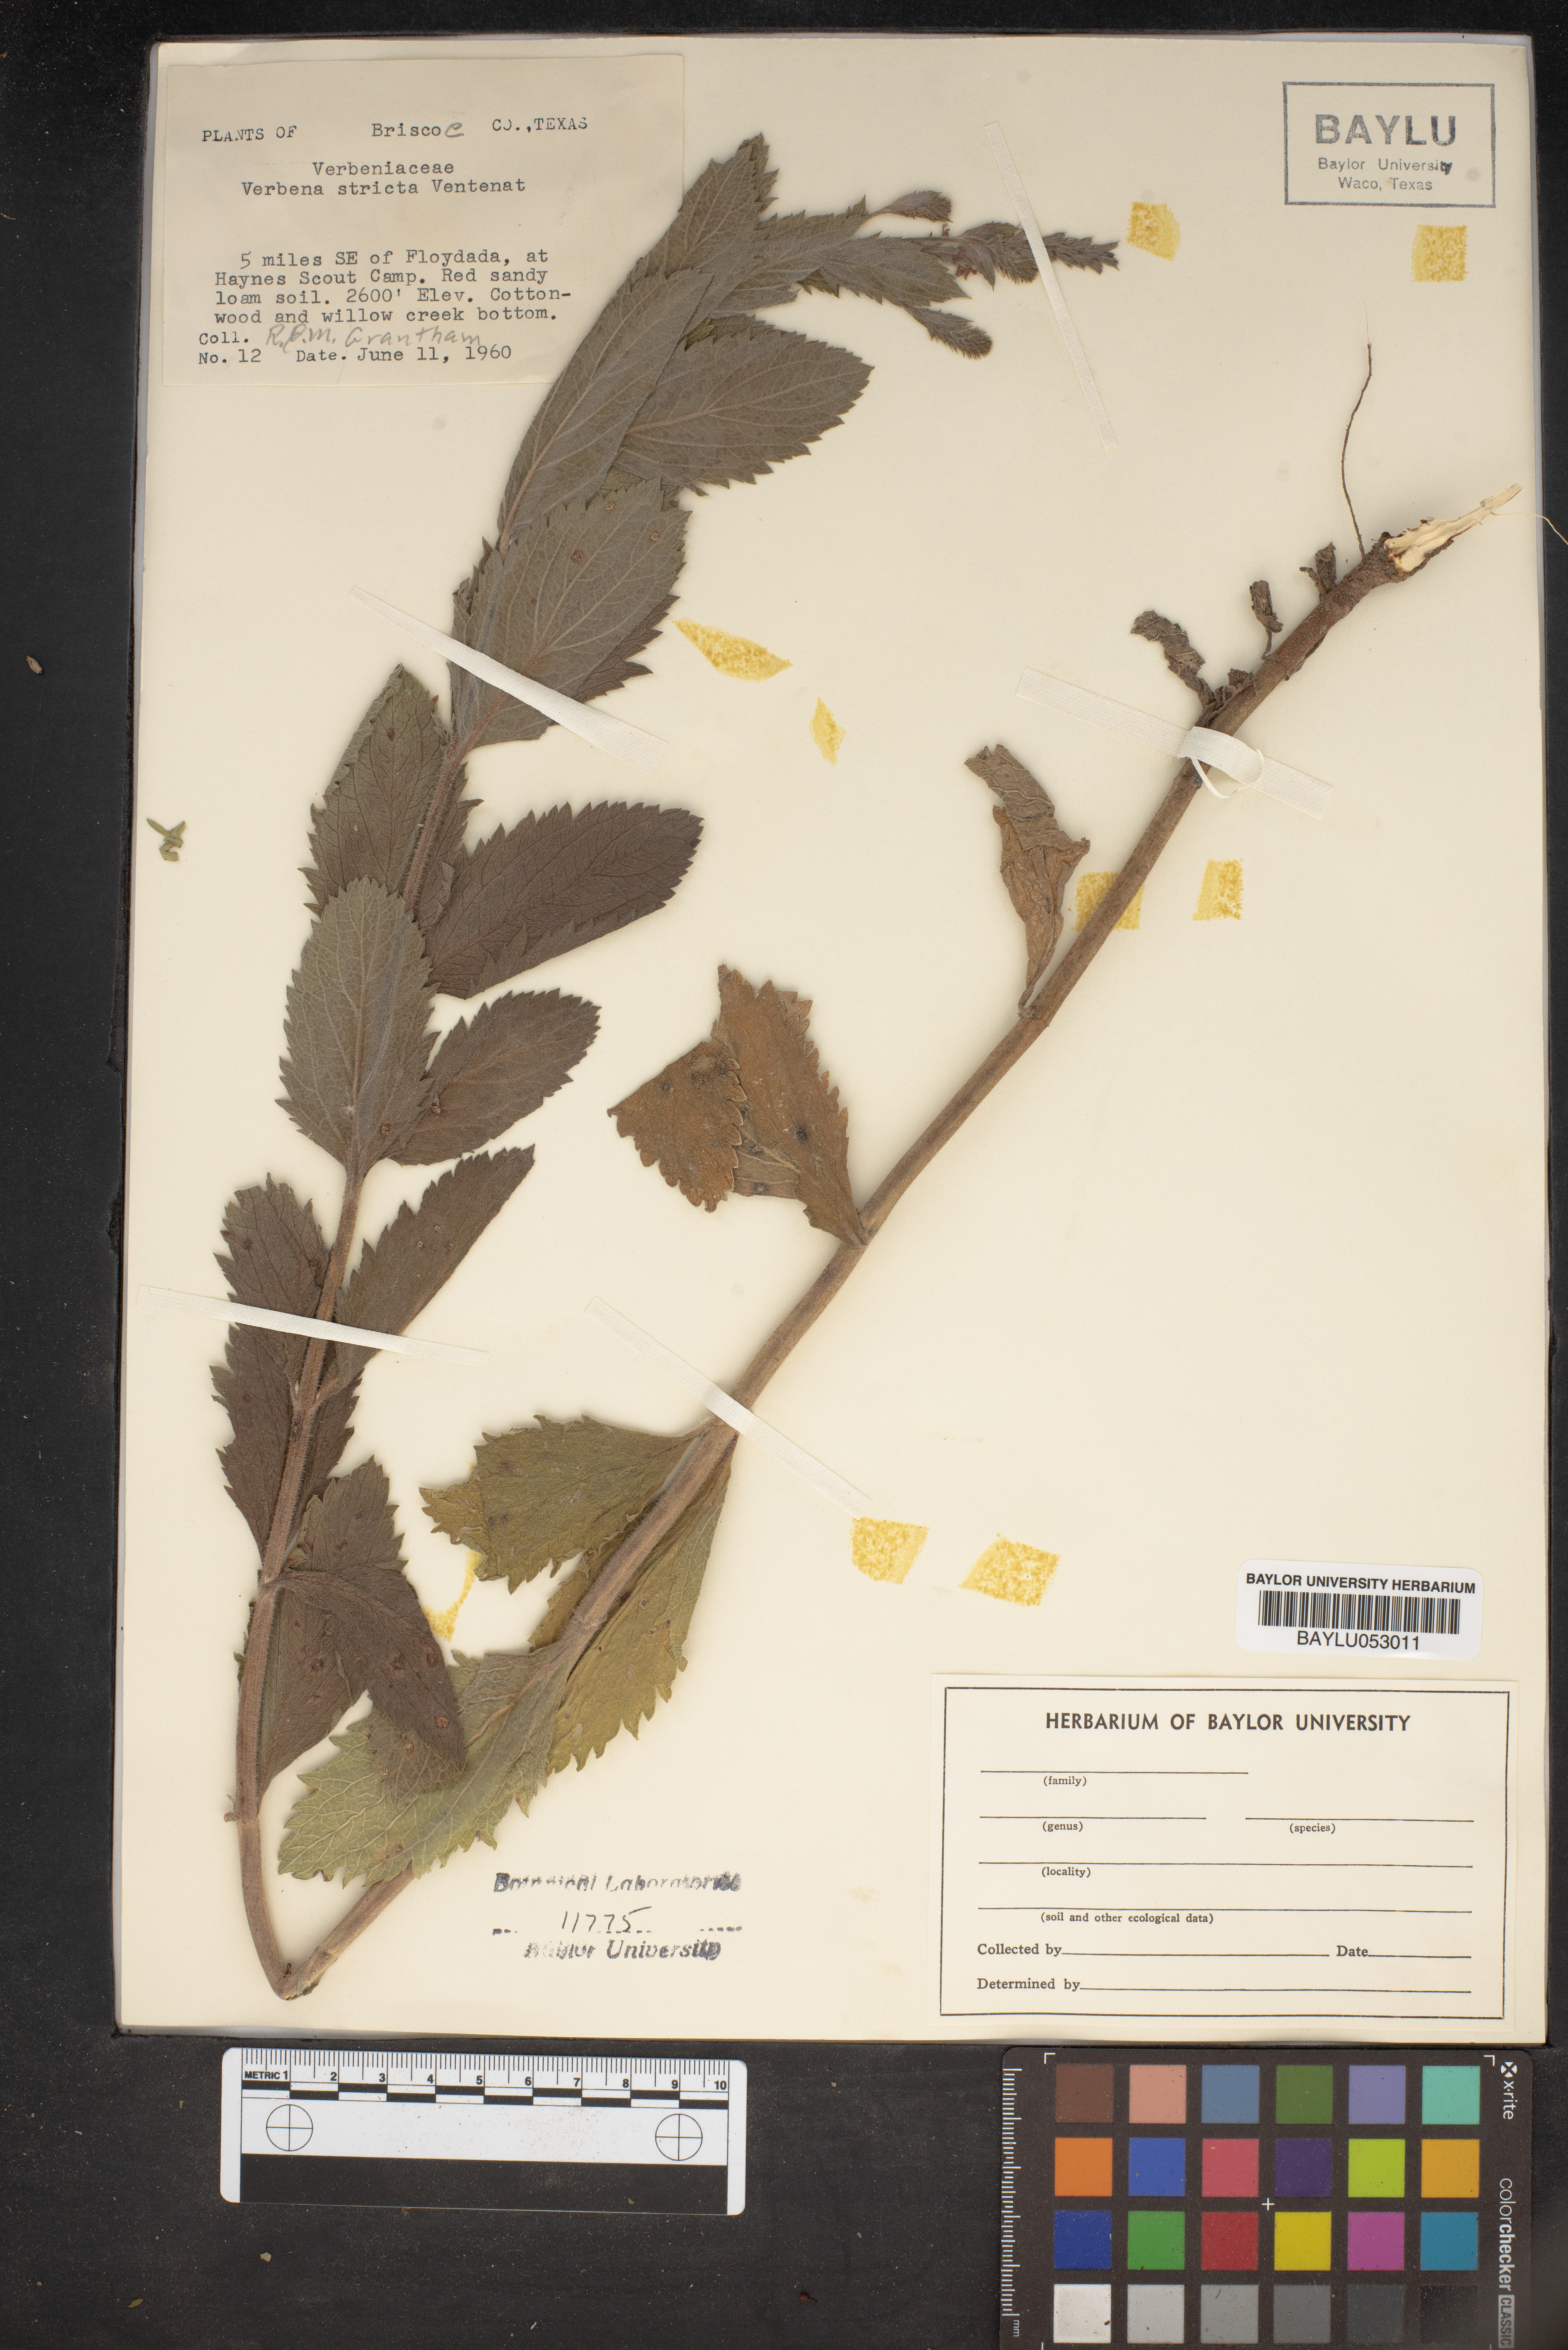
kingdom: Plantae
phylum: Tracheophyta
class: Magnoliopsida
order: Lamiales
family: Verbenaceae
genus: Verbena
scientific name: Verbena stricta
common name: Hoary vervain
